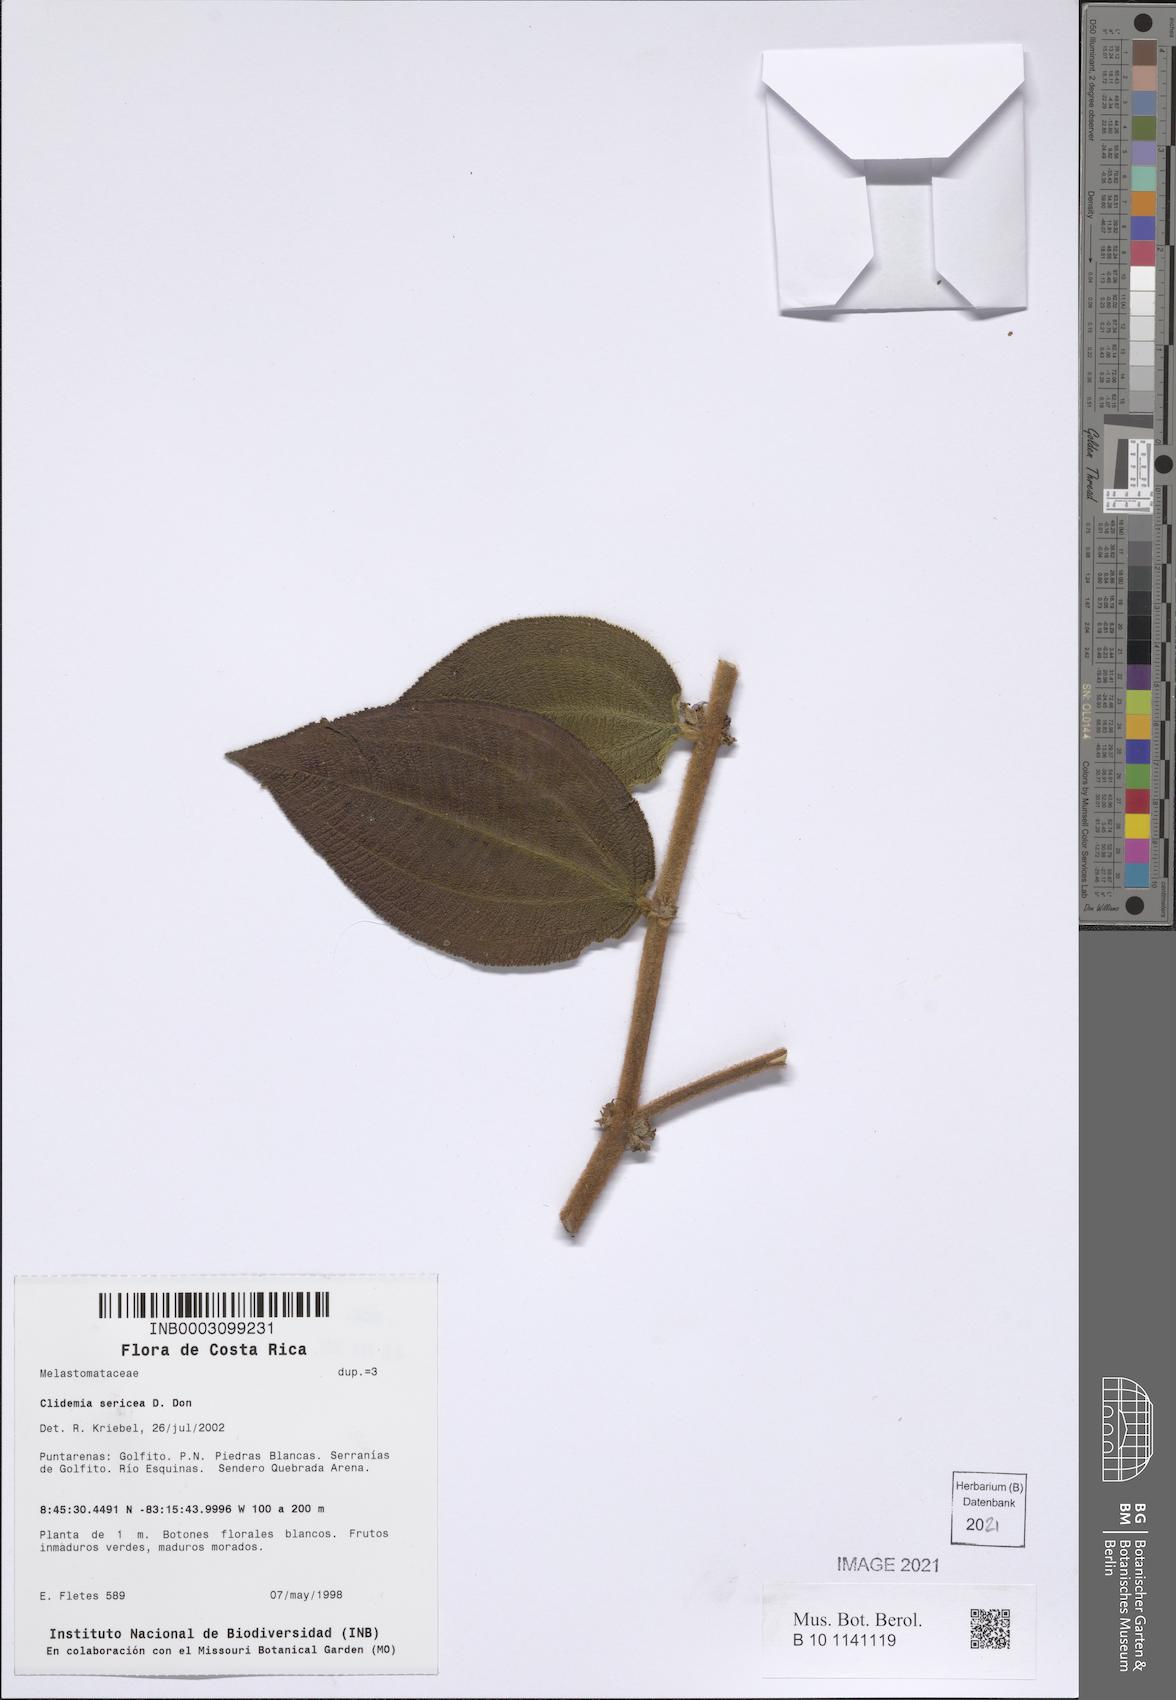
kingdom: Plantae
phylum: Tracheophyta
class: Magnoliopsida
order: Myrtales
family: Melastomataceae
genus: Miconia
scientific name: Miconia sericea
